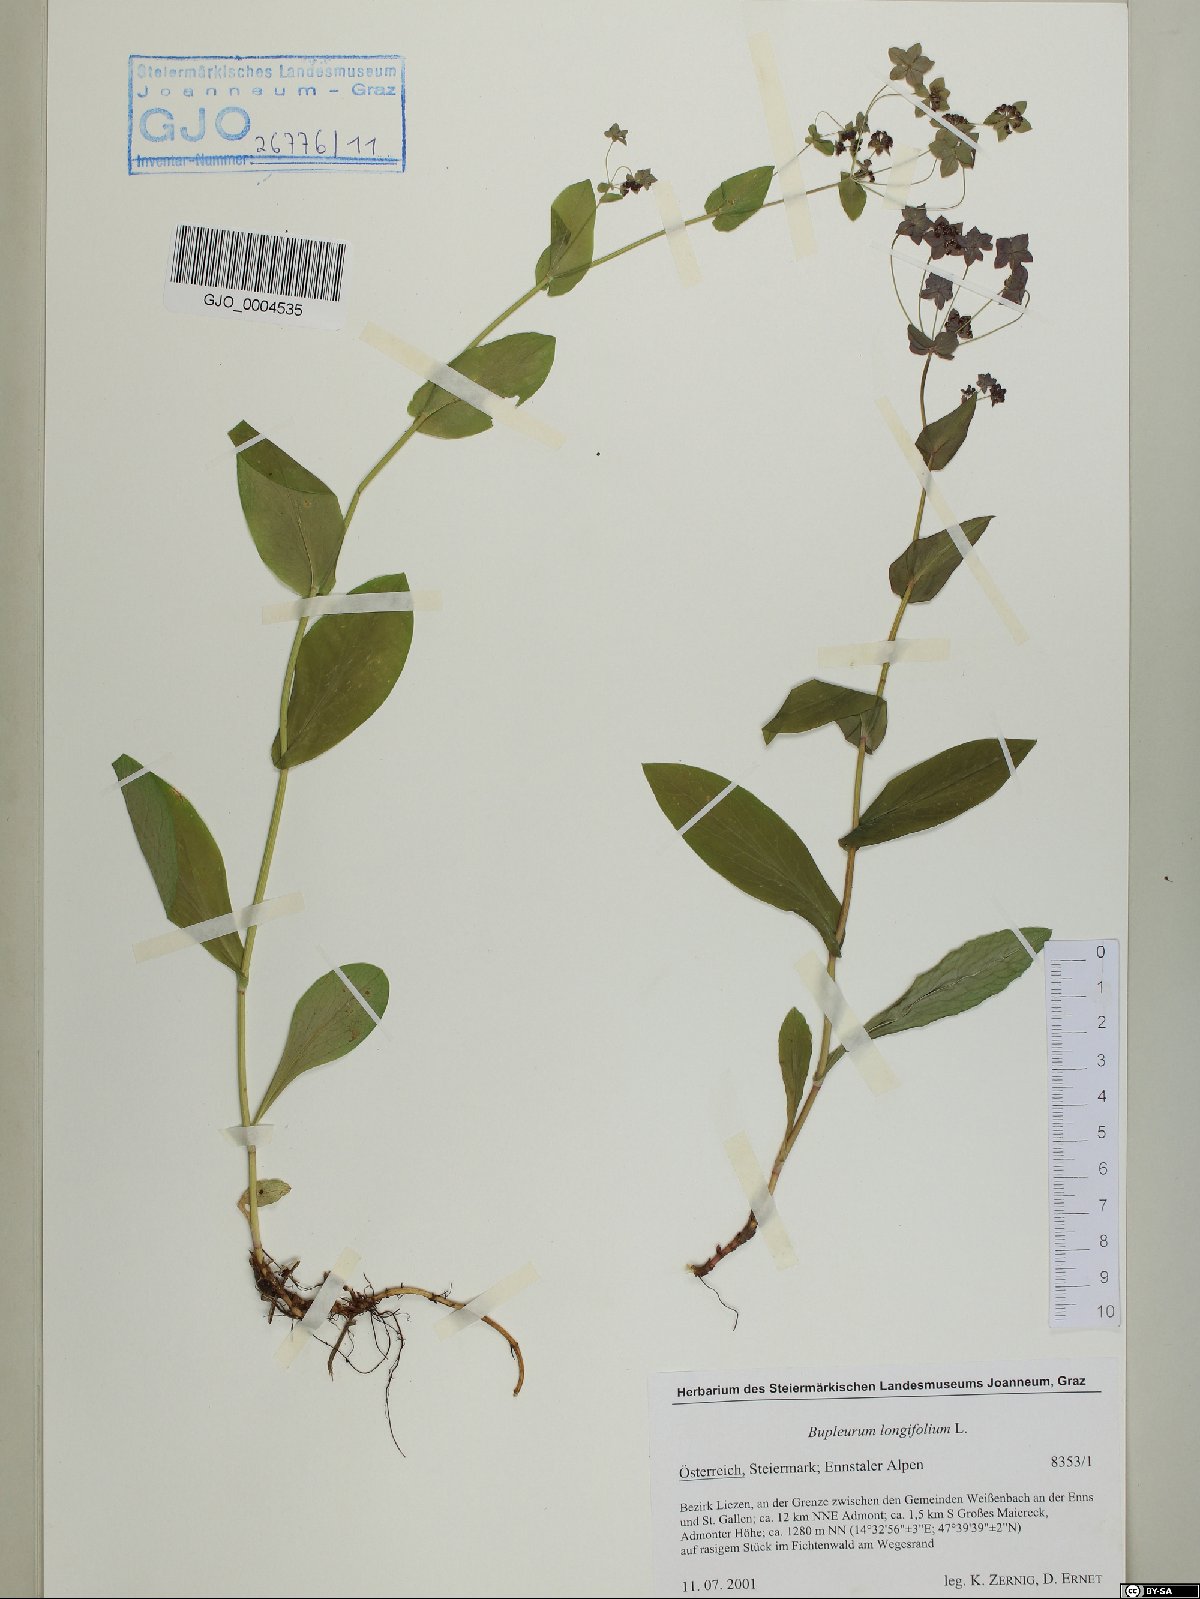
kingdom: Plantae
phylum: Tracheophyta
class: Magnoliopsida
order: Apiales
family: Apiaceae
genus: Bupleurum
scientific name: Bupleurum longifolium
